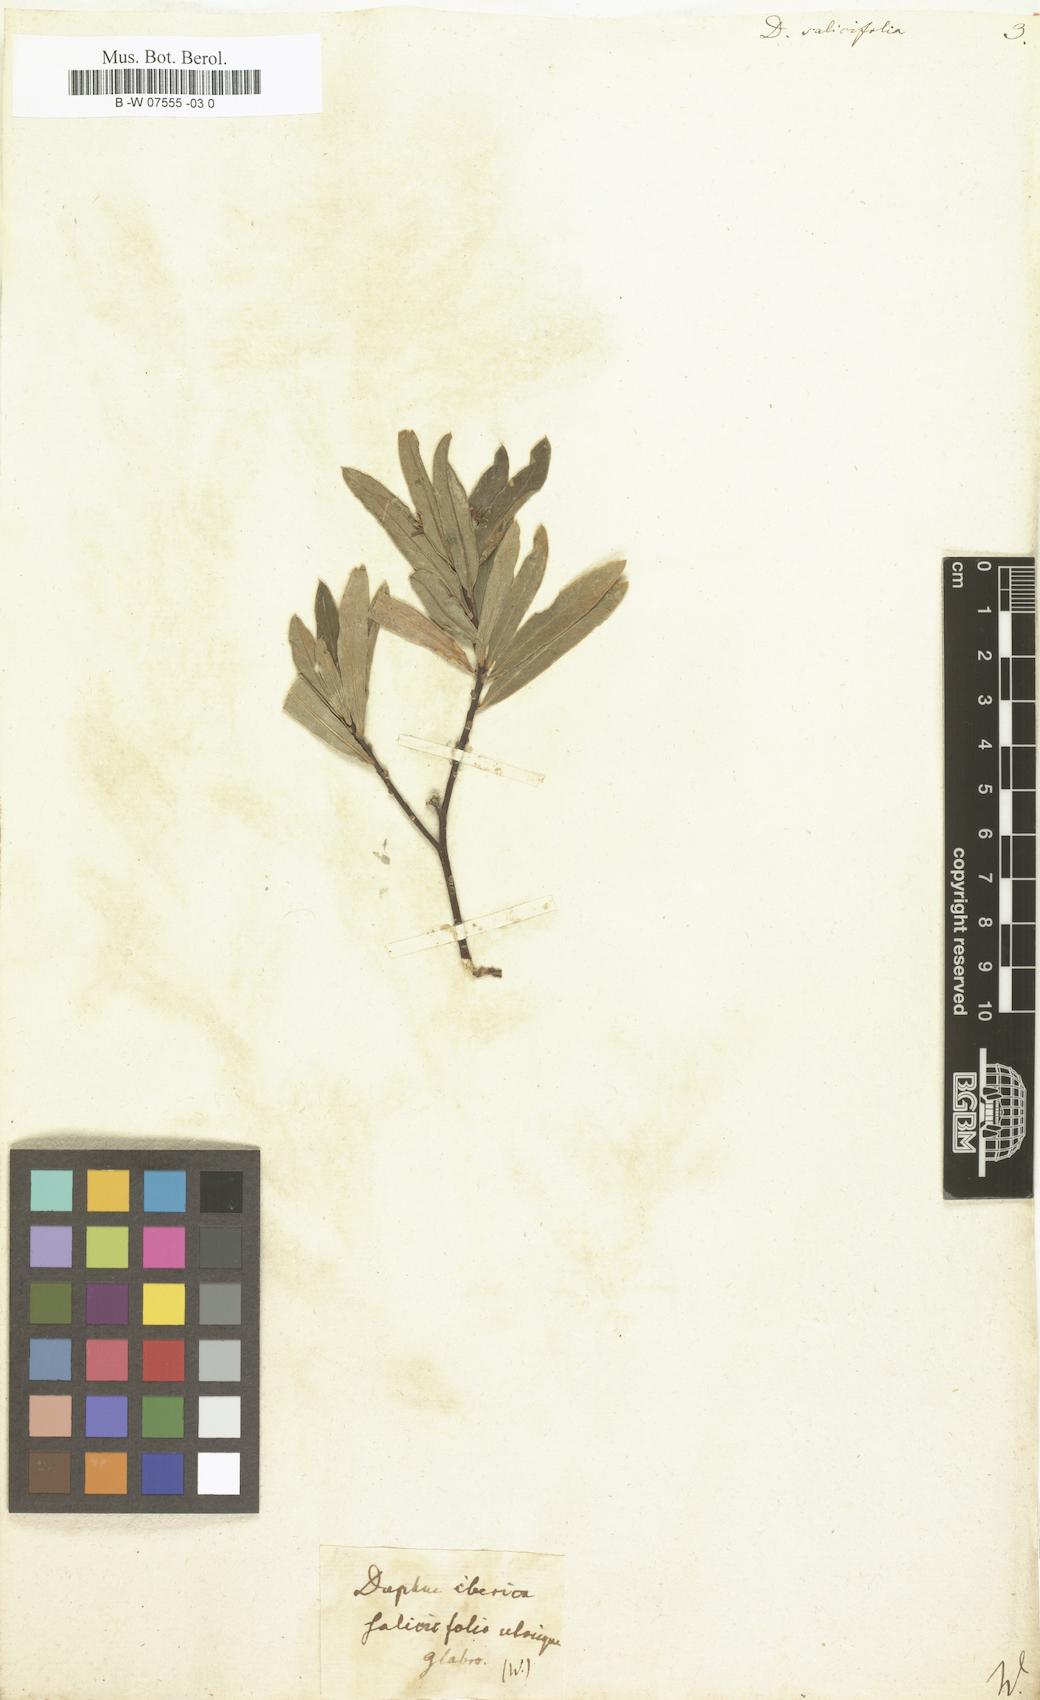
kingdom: Plantae
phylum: Tracheophyta
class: Magnoliopsida
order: Malvales
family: Thymelaeaceae
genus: Daphne
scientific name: Daphne caucasica
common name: Caucasian daphne
